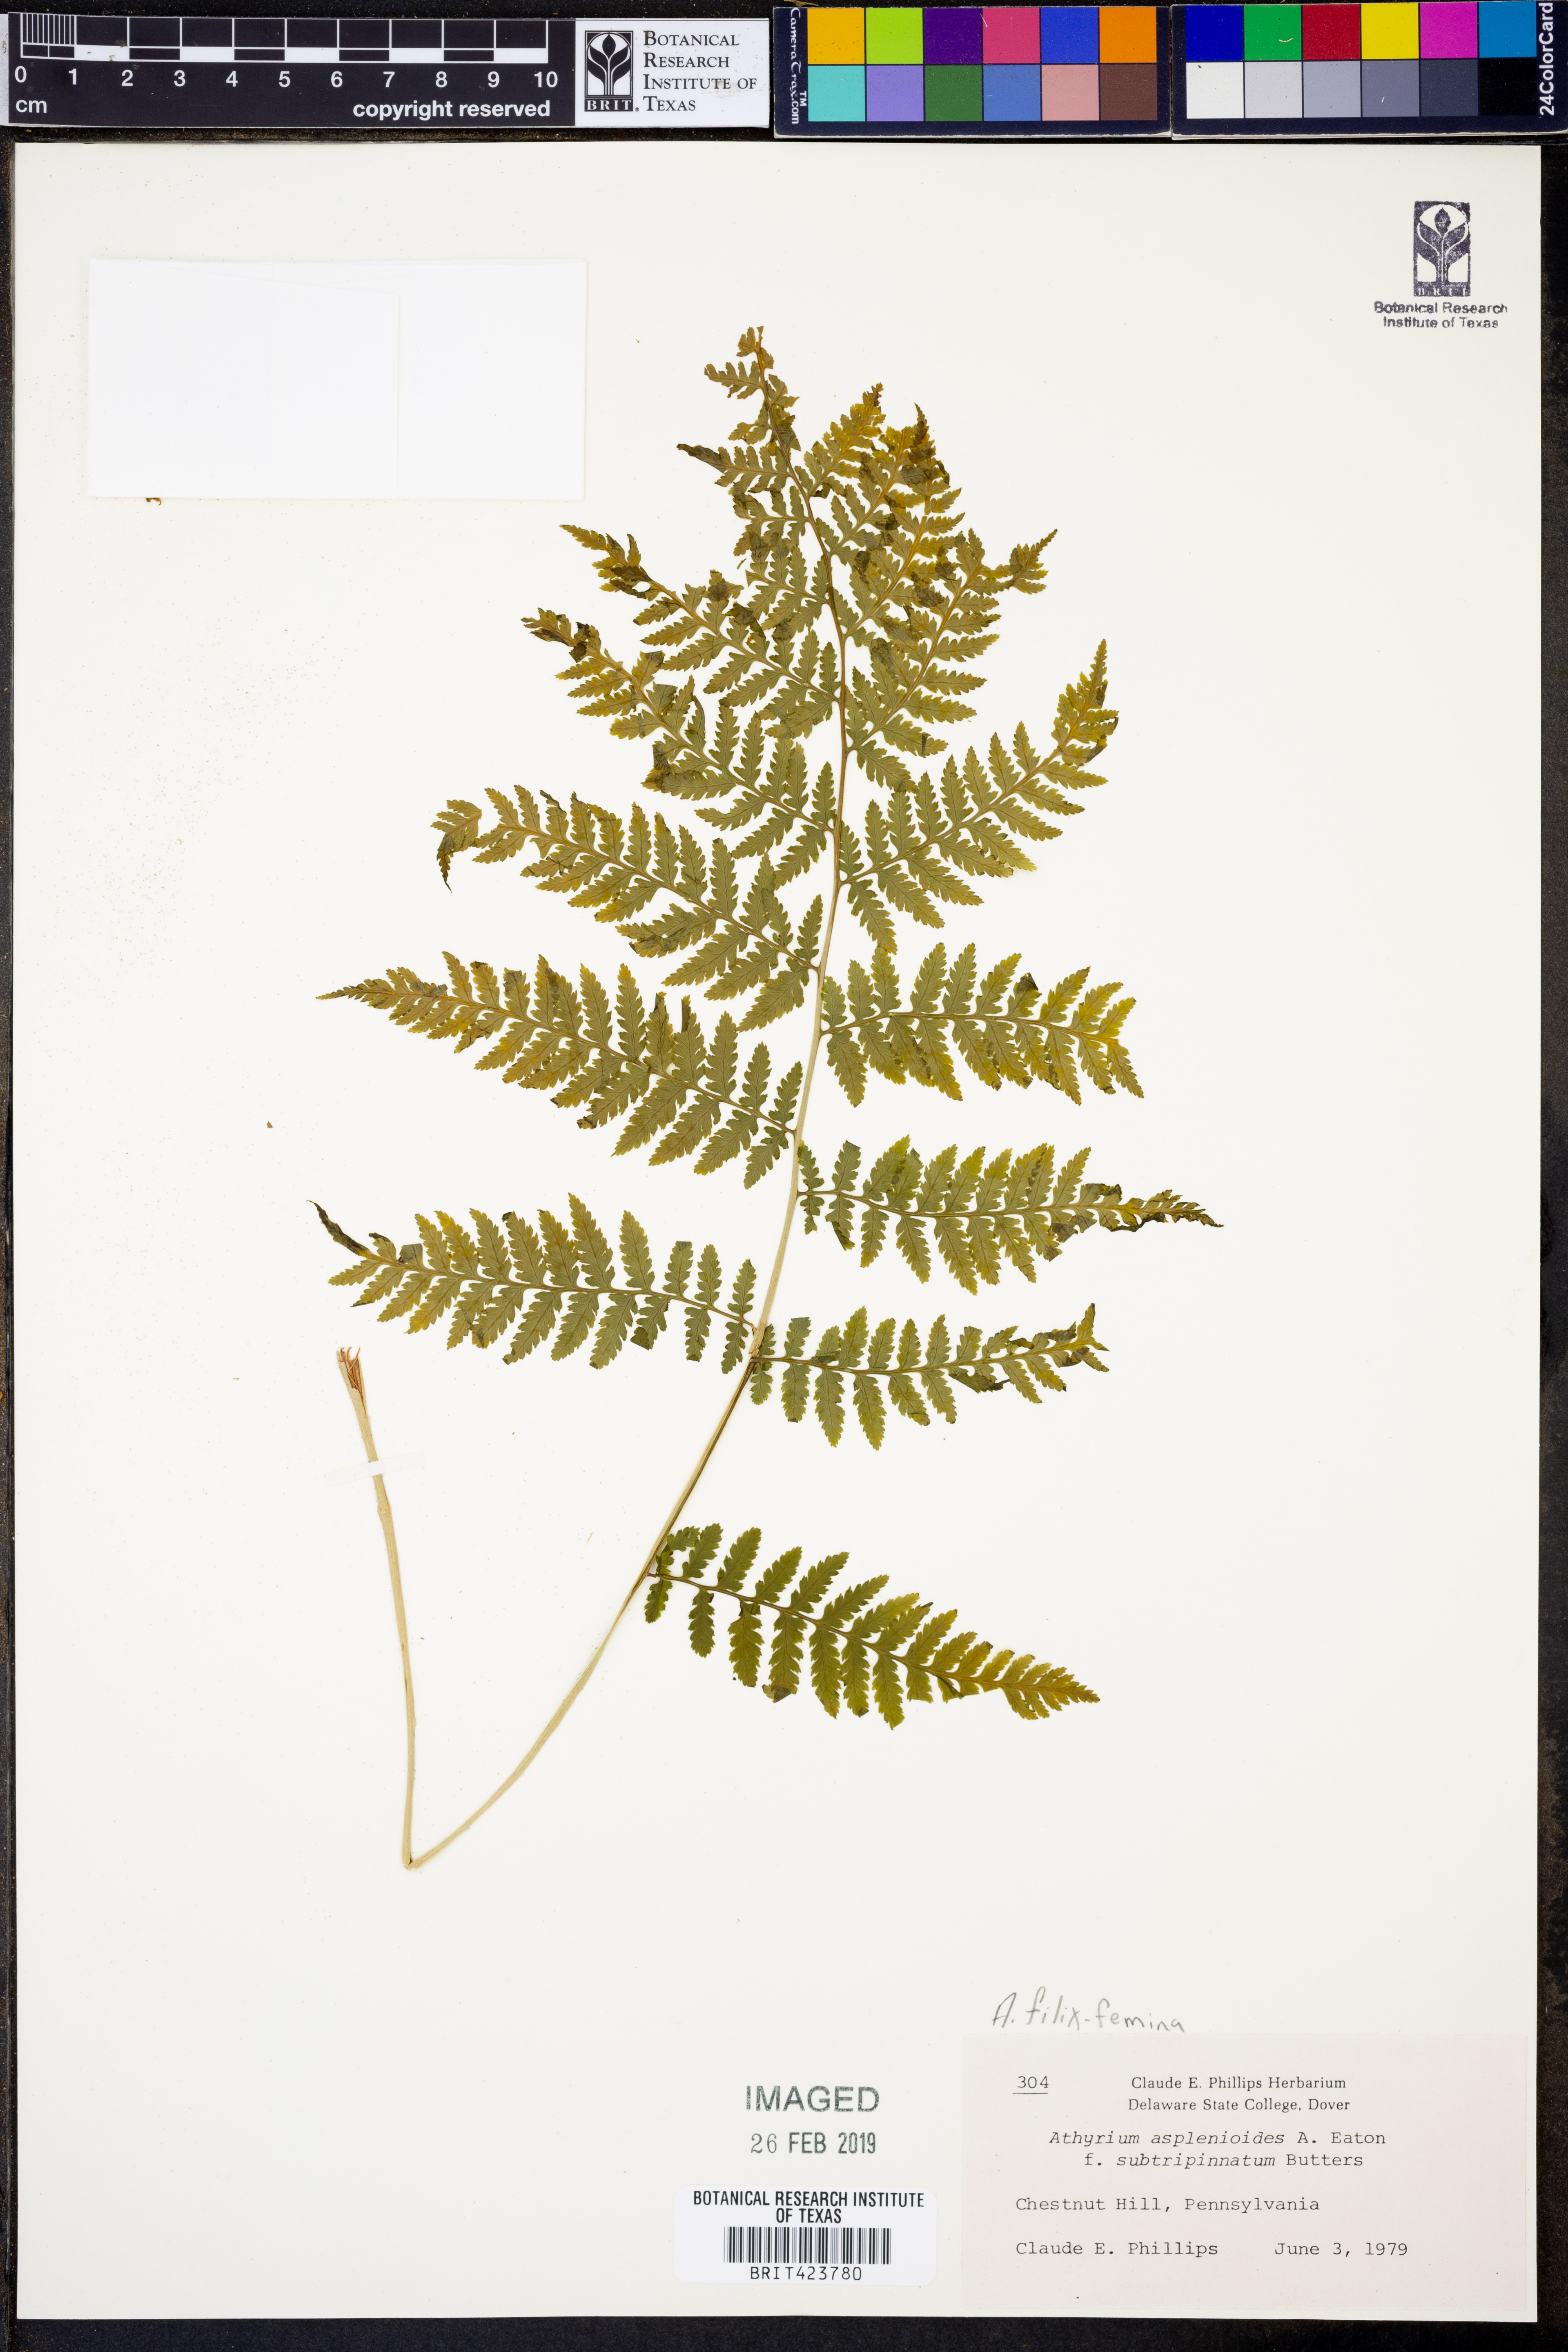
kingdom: Plantae
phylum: Tracheophyta
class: Polypodiopsida
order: Polypodiales
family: Athyriaceae
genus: Athyrium
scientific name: Athyrium asplenioides
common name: Southern lady fern
